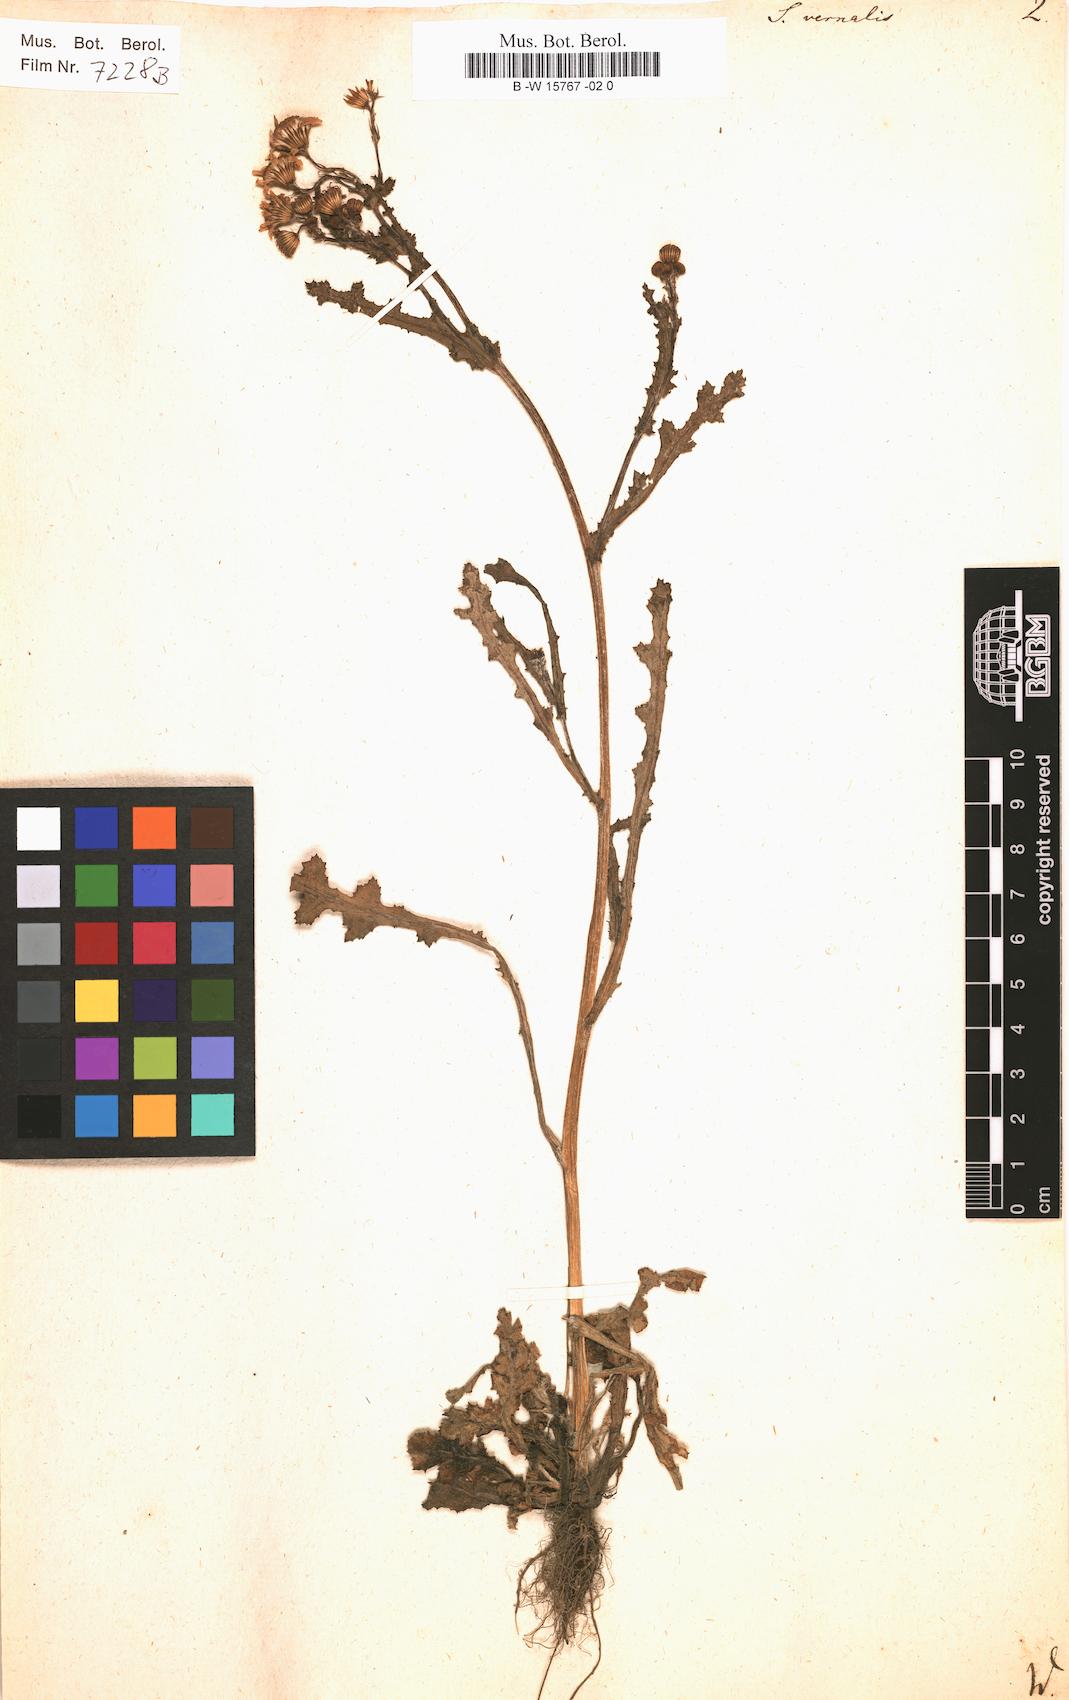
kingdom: Plantae
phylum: Tracheophyta
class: Magnoliopsida
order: Asterales
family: Asteraceae
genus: Senecio
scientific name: Senecio vernalis
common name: Eastern groundsel
